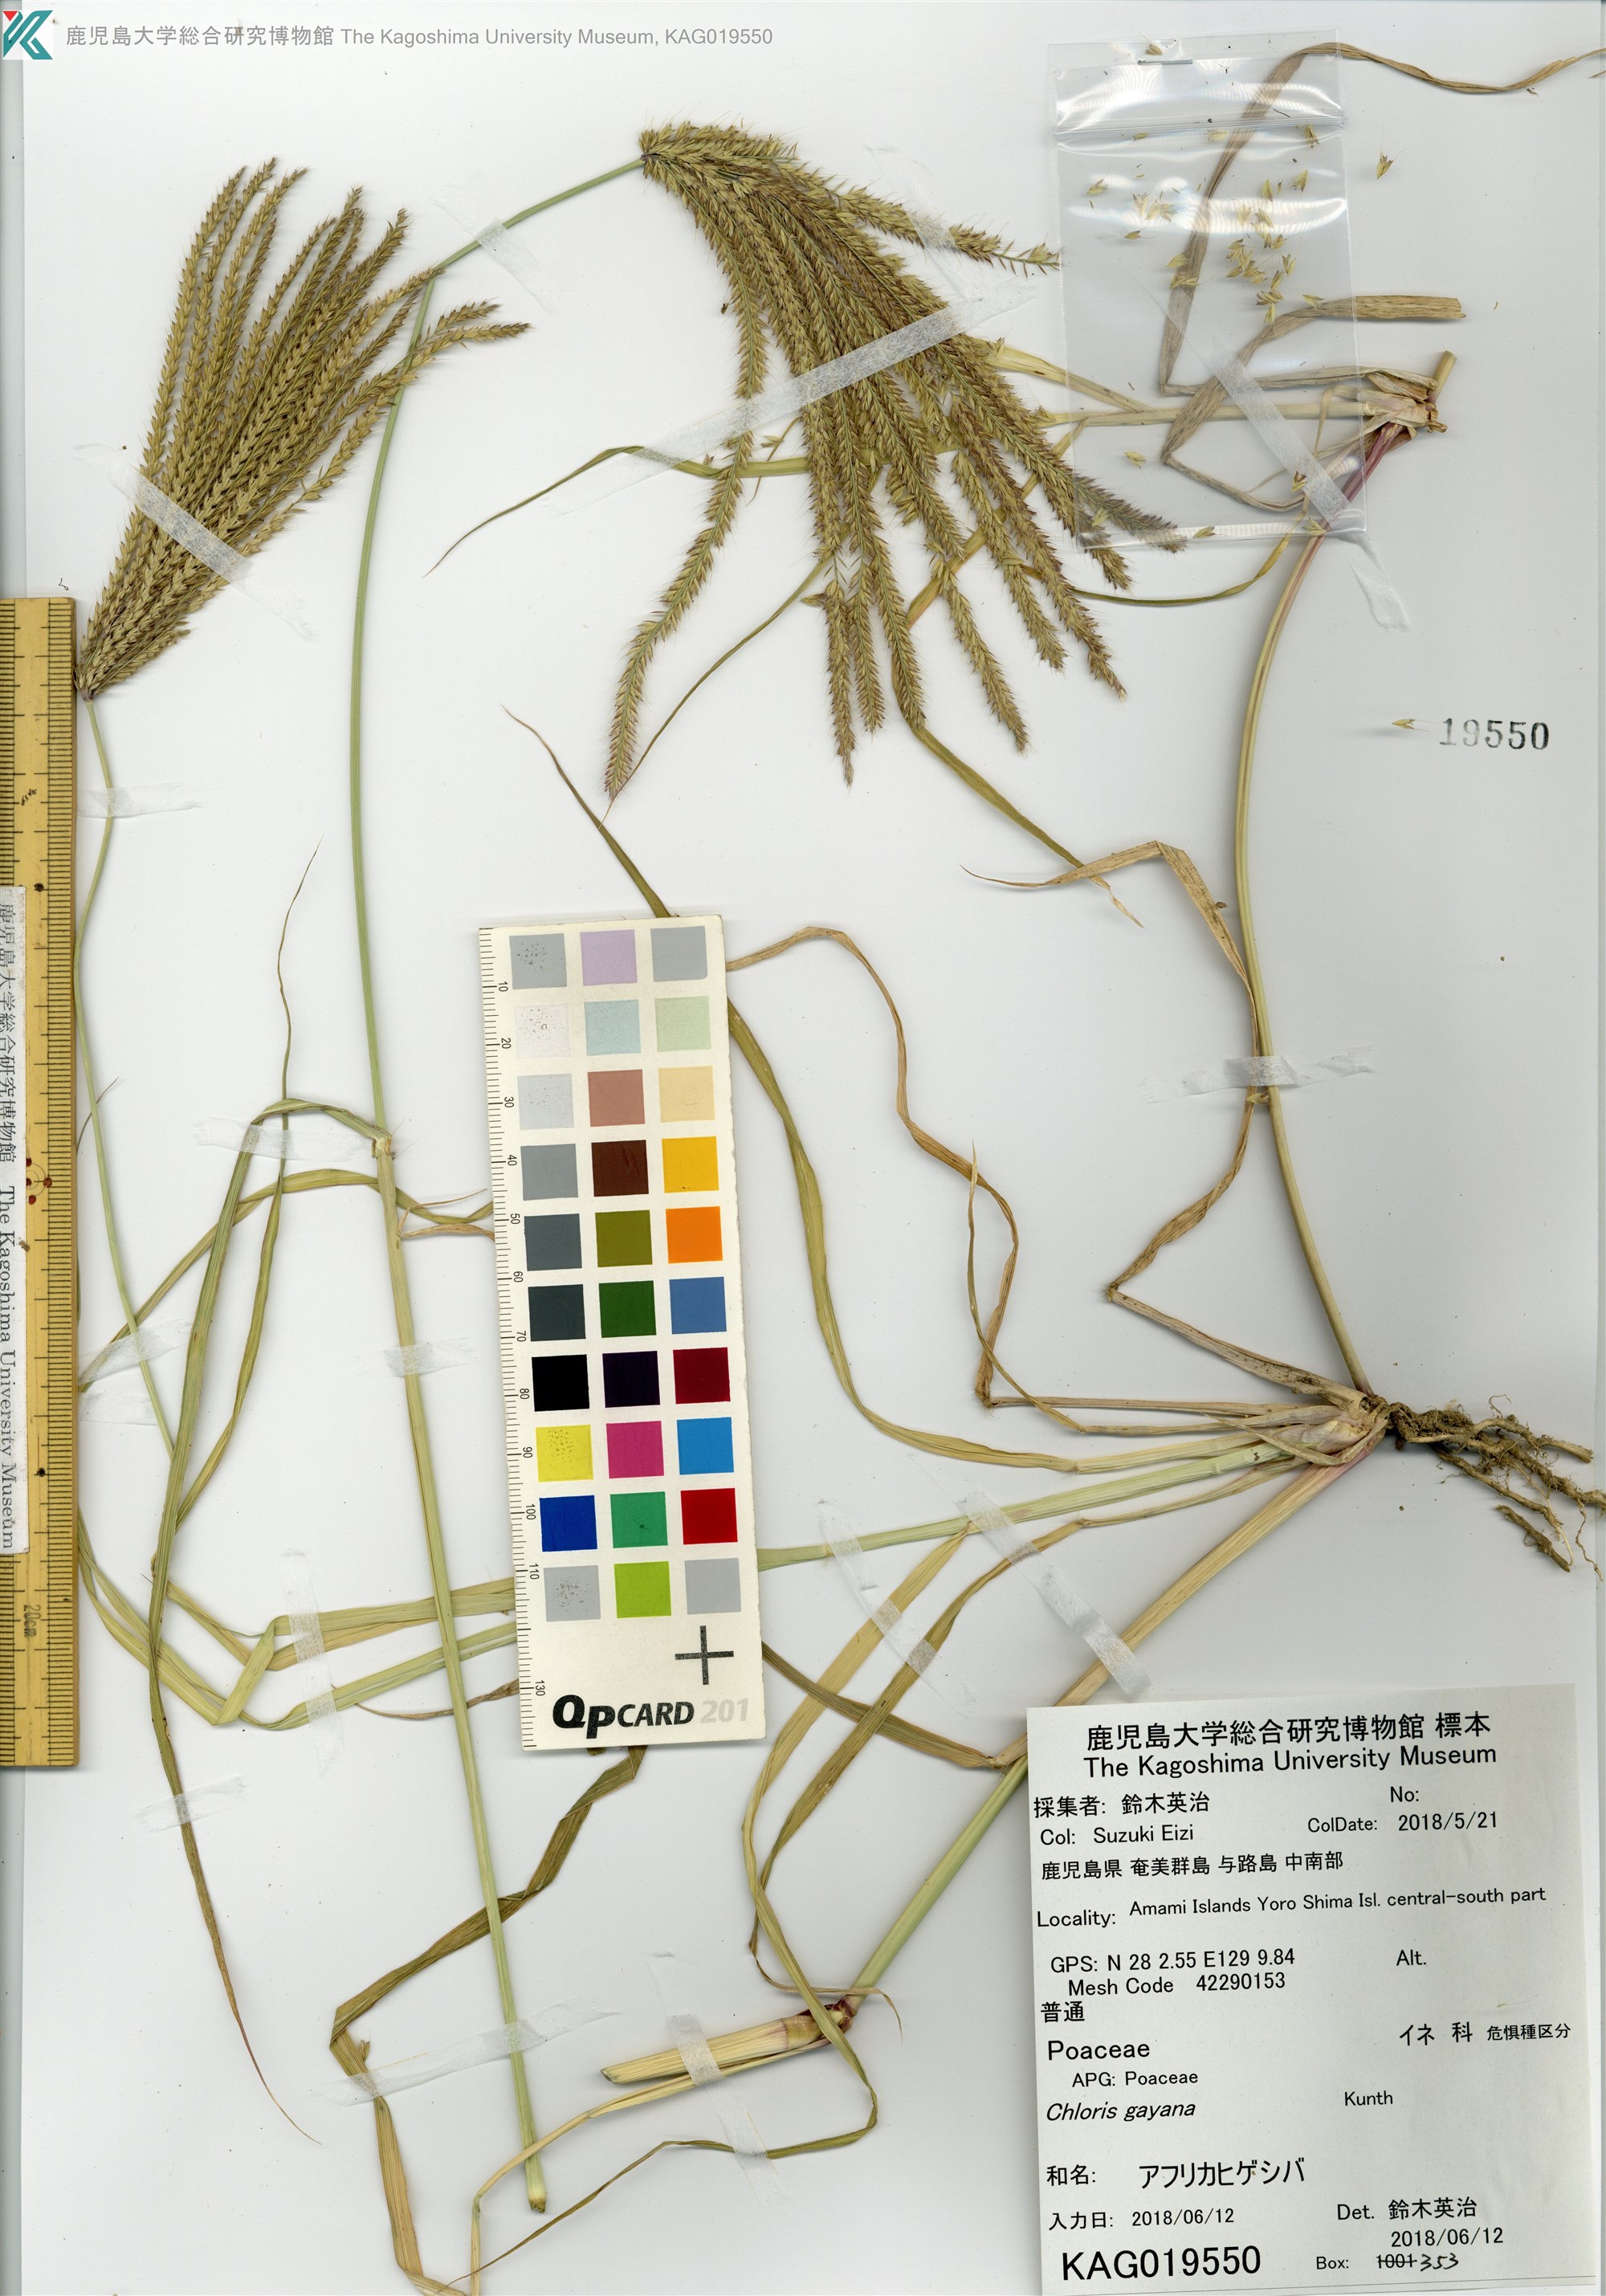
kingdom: Plantae
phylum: Tracheophyta
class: Liliopsida
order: Poales
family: Poaceae
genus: Chloris
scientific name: Chloris gayana
